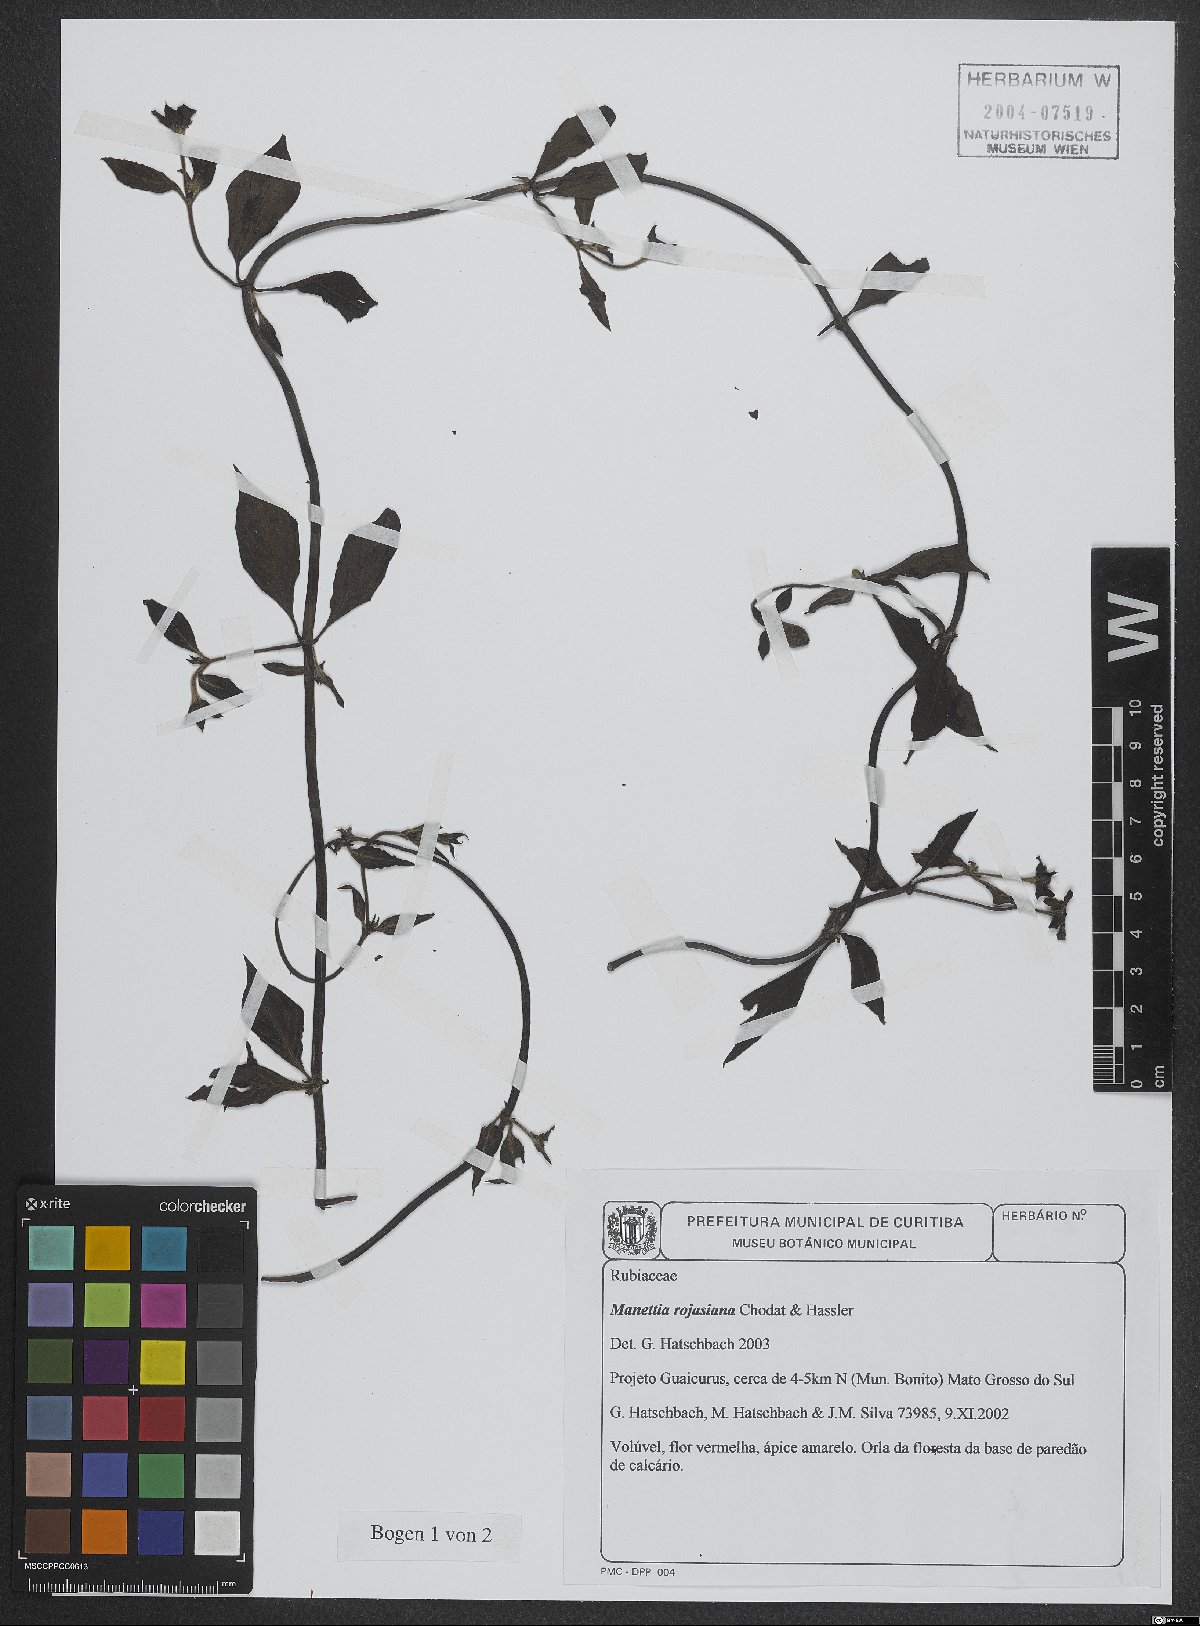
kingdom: Plantae
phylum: Tracheophyta
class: Magnoliopsida
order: Gentianales
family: Rubiaceae
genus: Manettia
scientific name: Manettia rojasiana
